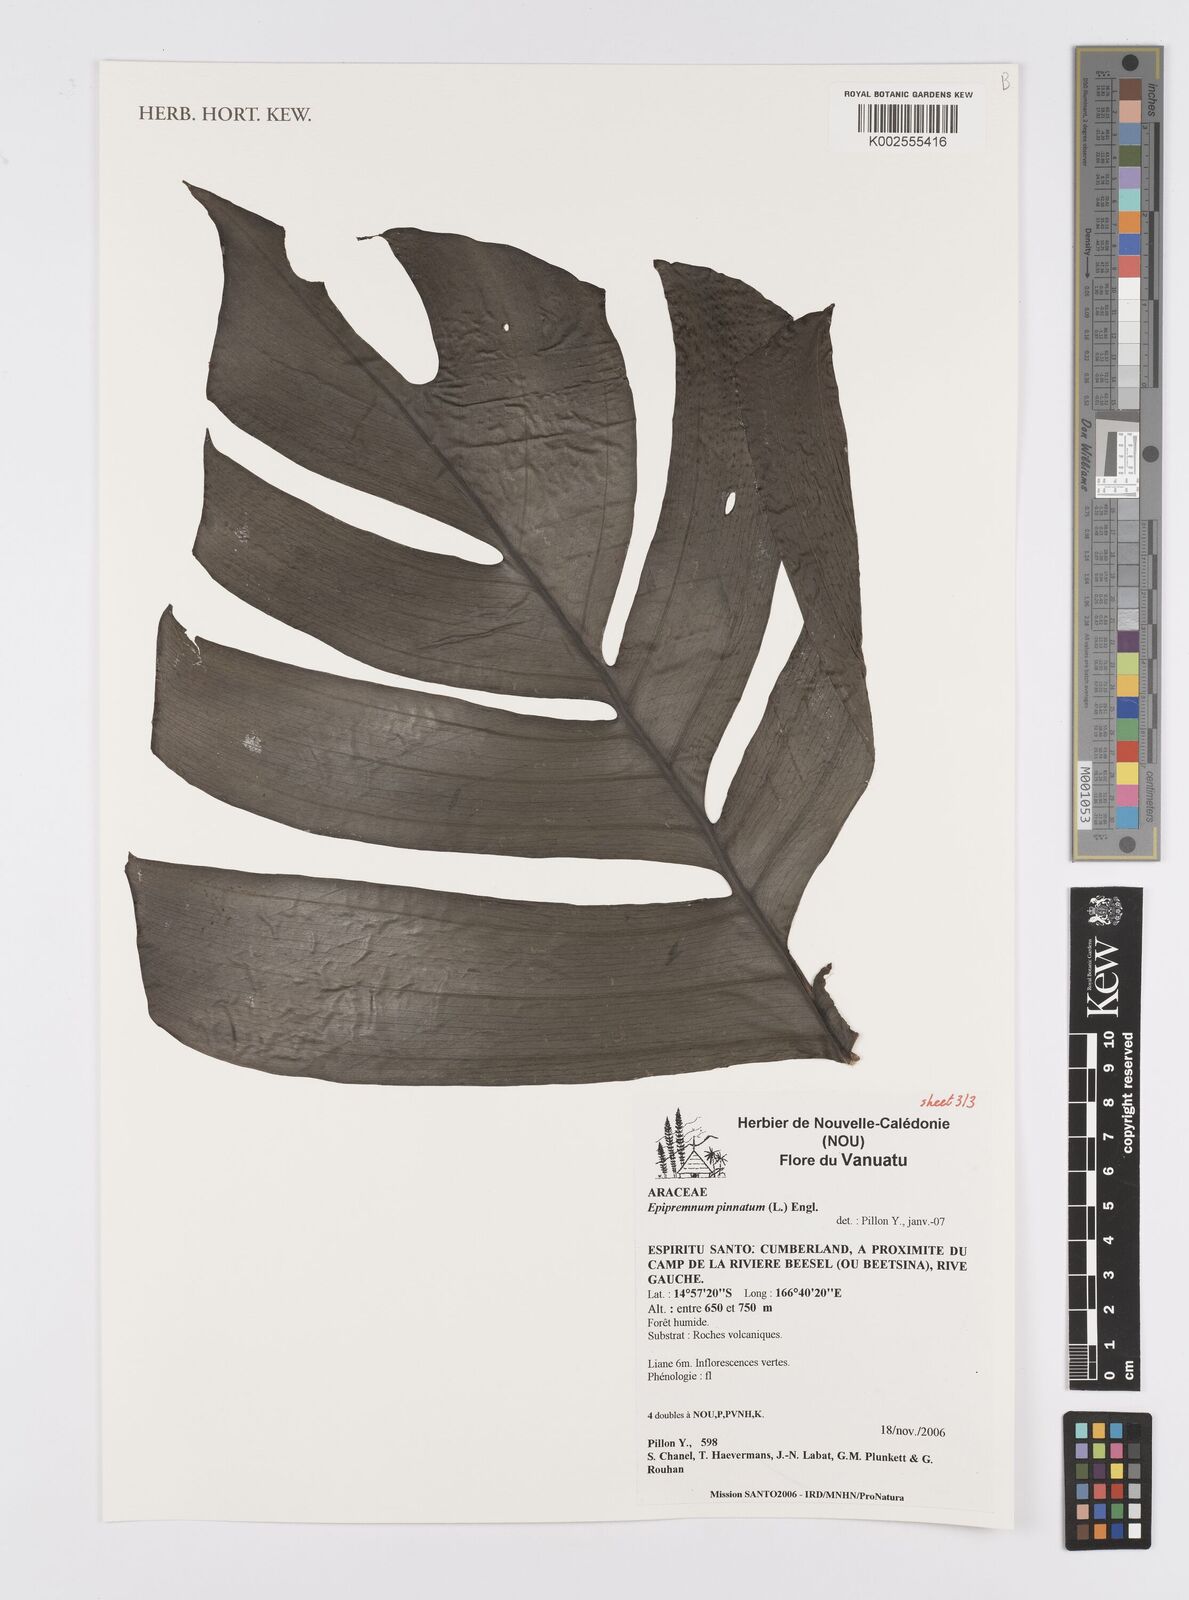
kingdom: Plantae
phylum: Tracheophyta
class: Liliopsida
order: Alismatales
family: Araceae
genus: Epipremnum
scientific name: Epipremnum pinnatum
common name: Centipede tongavine
